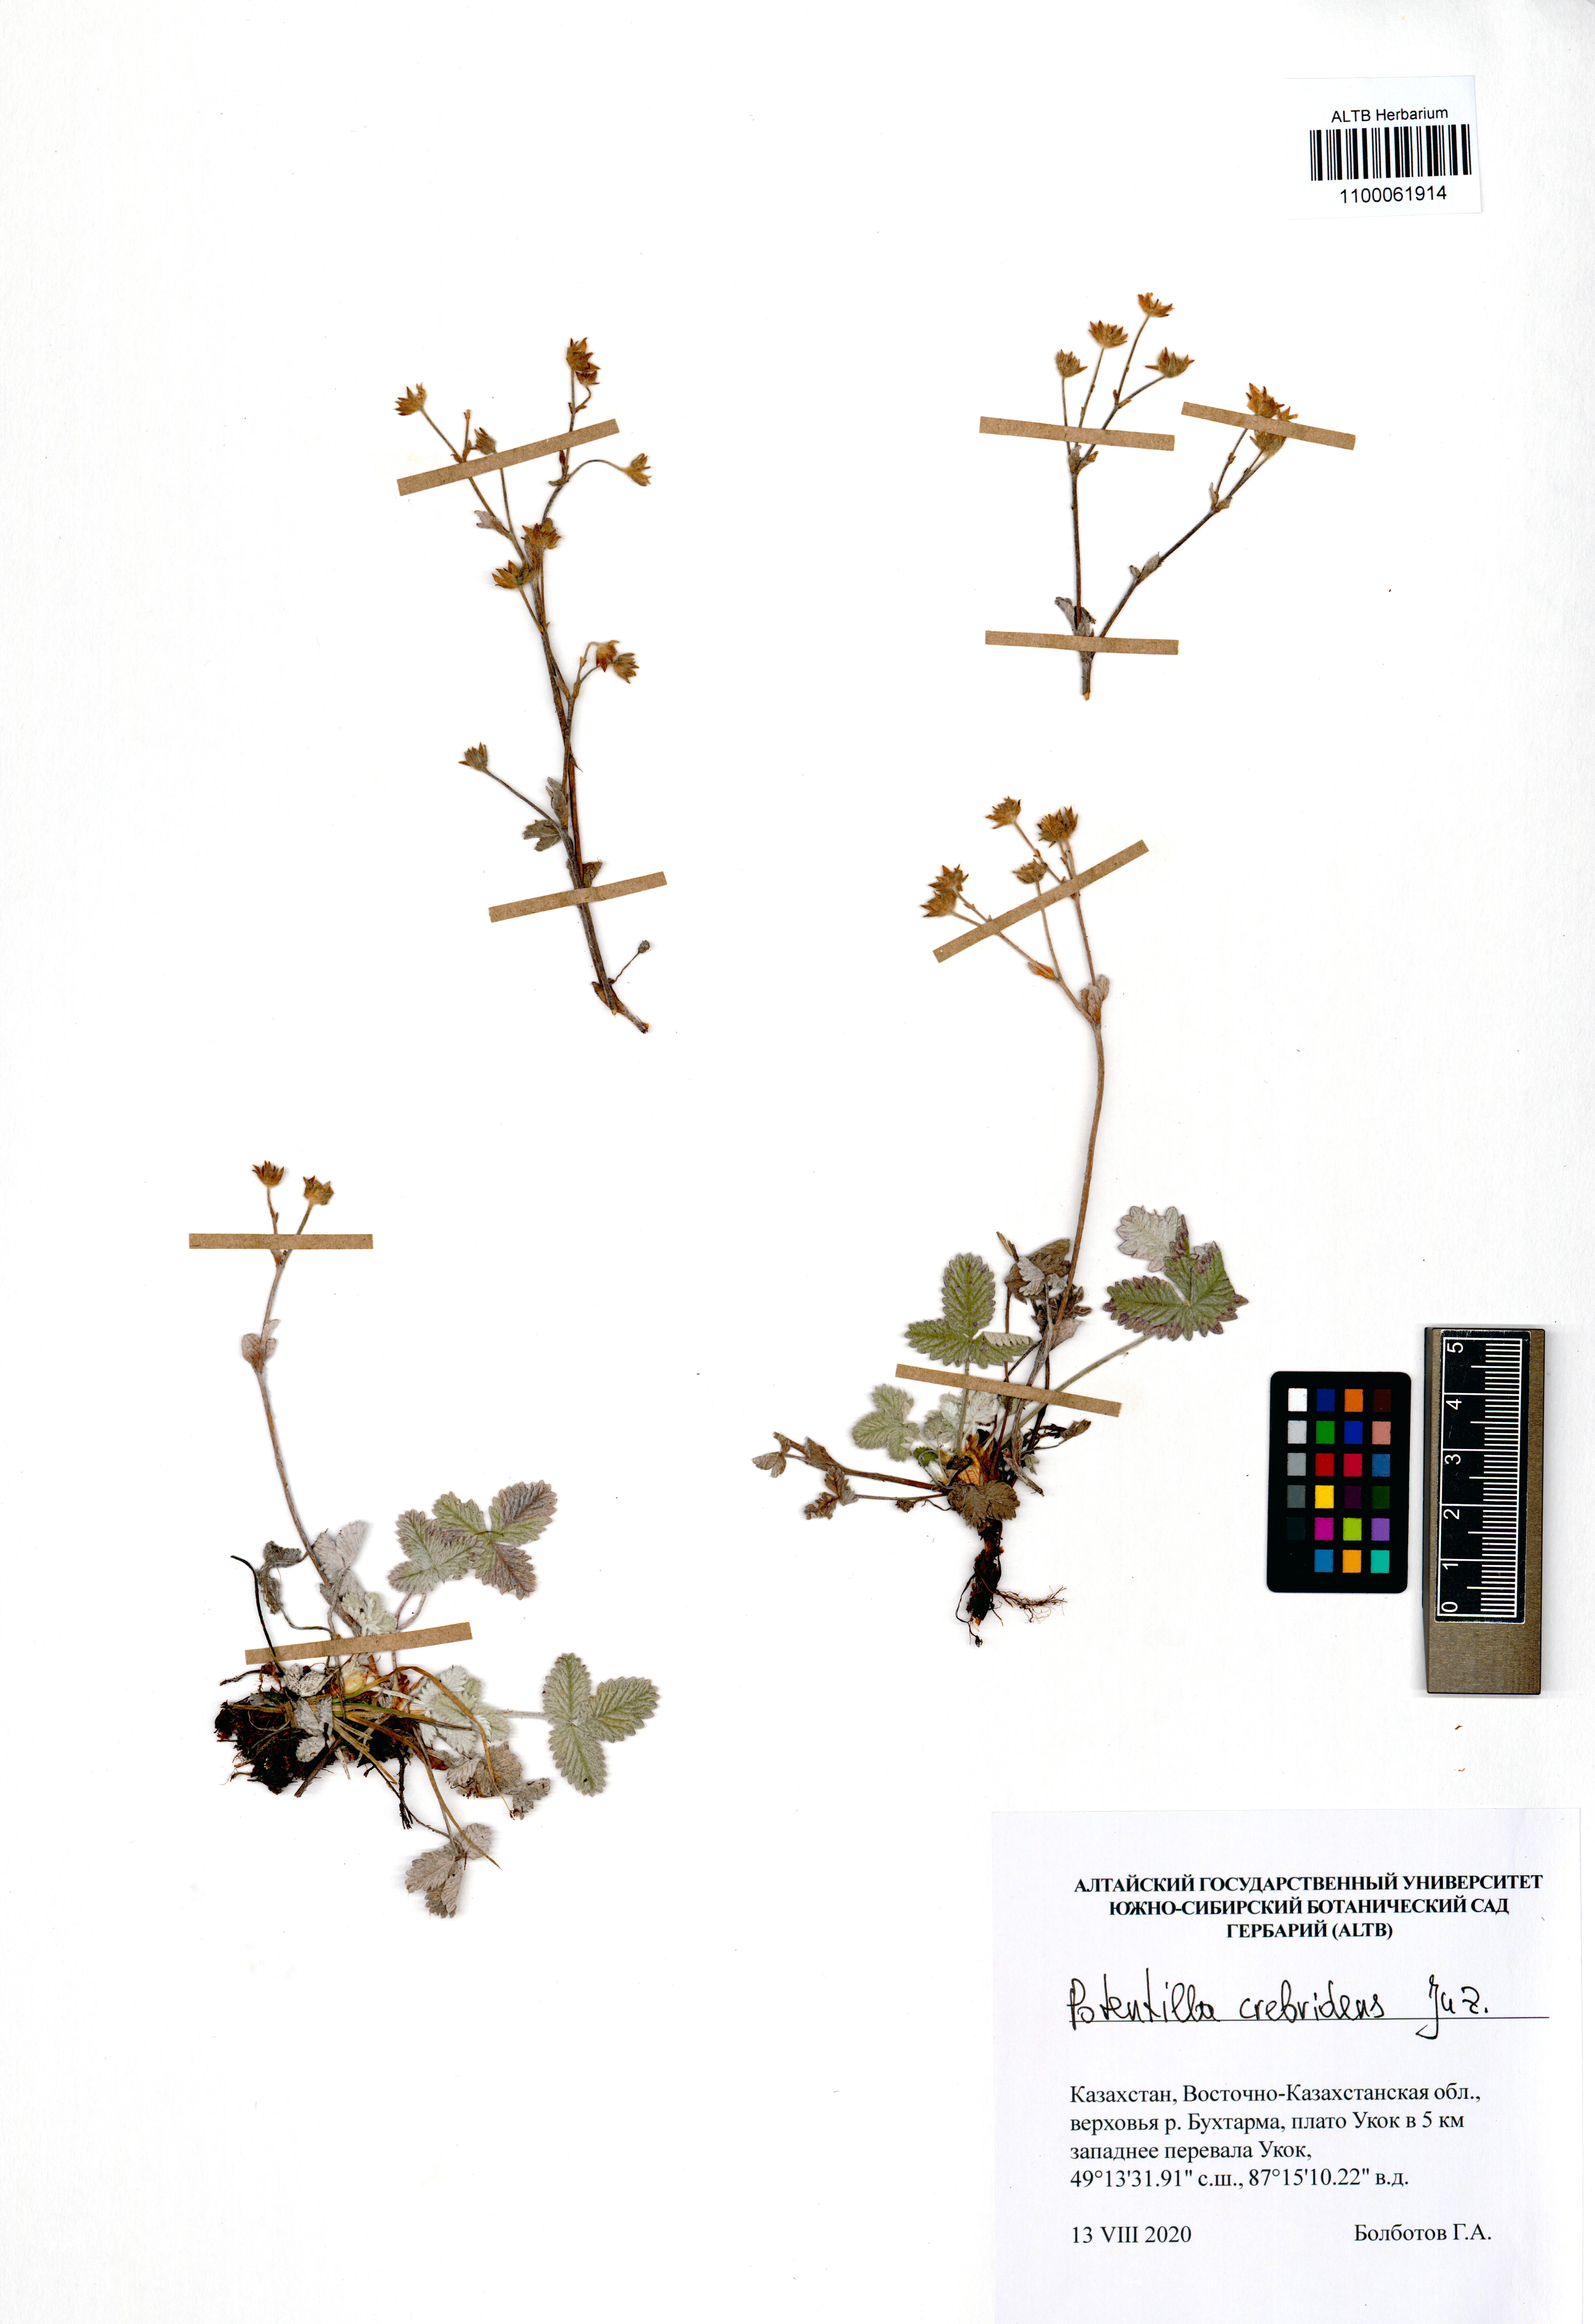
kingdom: Plantae
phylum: Tracheophyta
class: Magnoliopsida
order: Rosales
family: Rosaceae
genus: Potentilla
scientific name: Potentilla crebridens
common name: Congested cinquefoil
